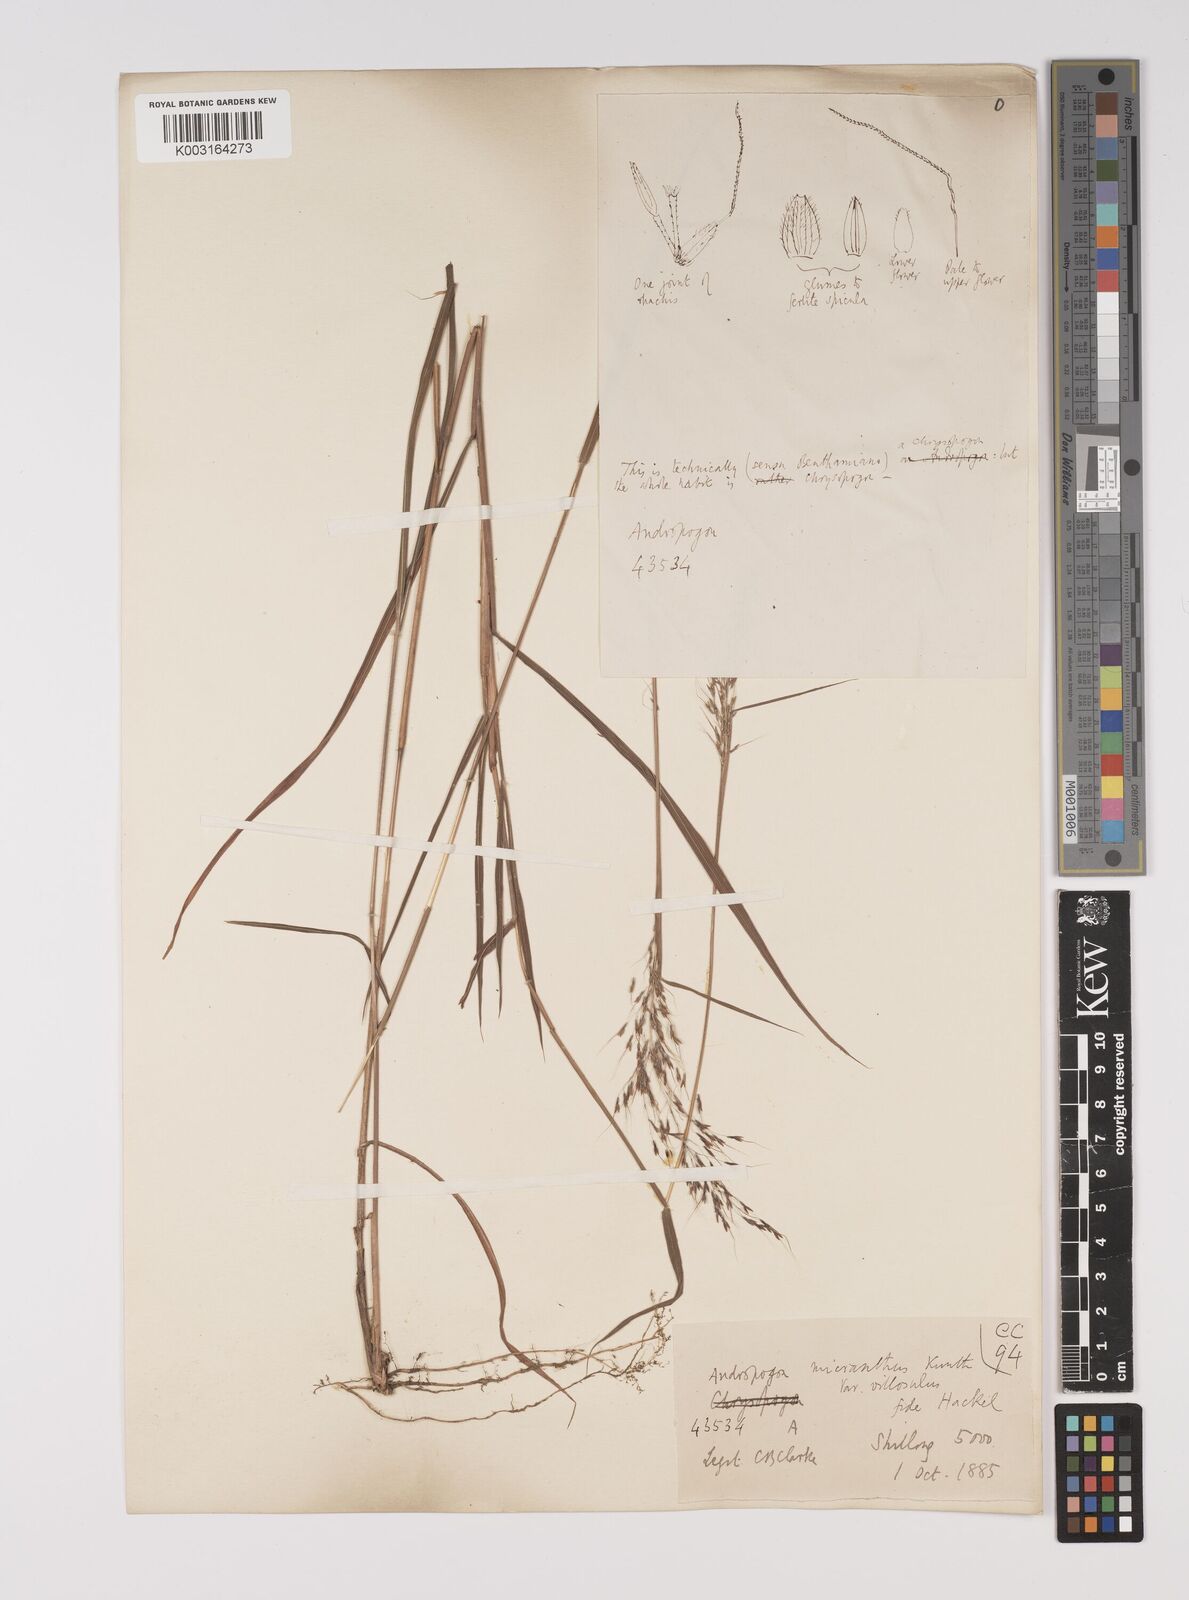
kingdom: Plantae
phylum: Tracheophyta
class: Liliopsida
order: Poales
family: Poaceae
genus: Capillipedium
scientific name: Capillipedium parviflorum
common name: Golden-beard
